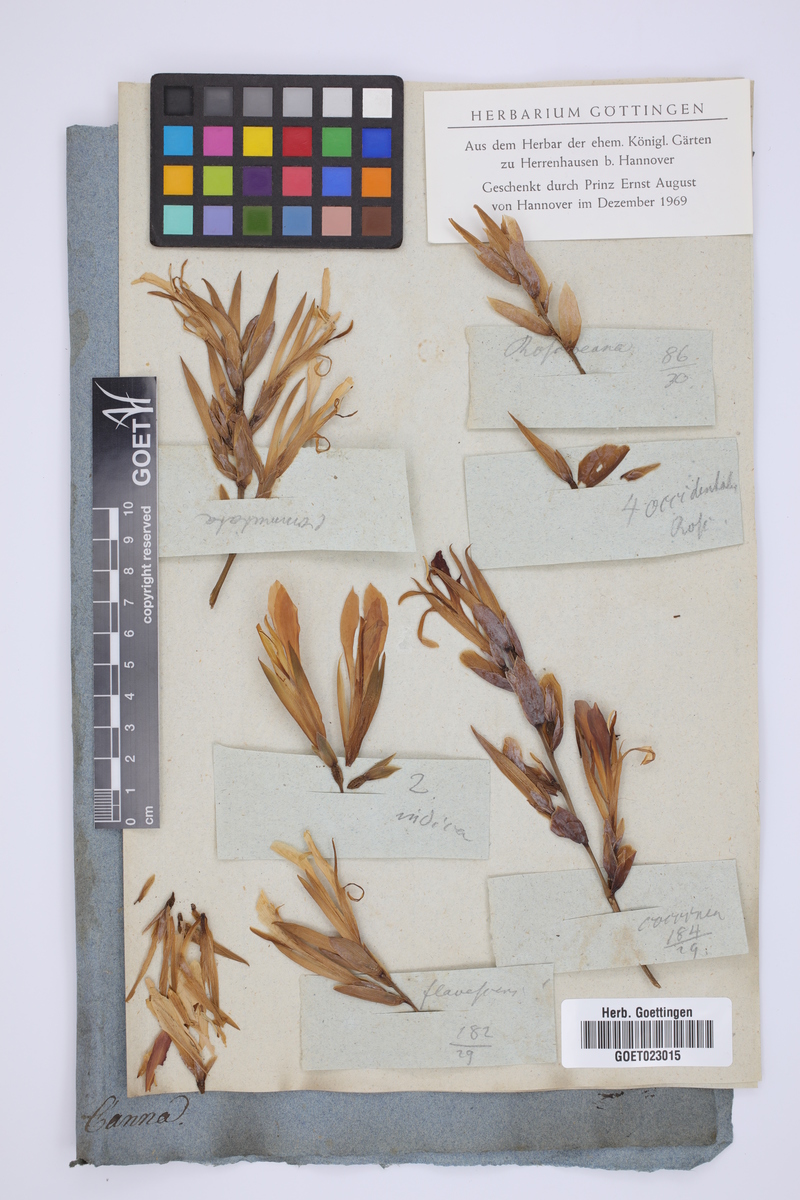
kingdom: Plantae
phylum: Tracheophyta
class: Liliopsida
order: Zingiberales
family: Cannaceae
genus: Canna
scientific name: Canna
